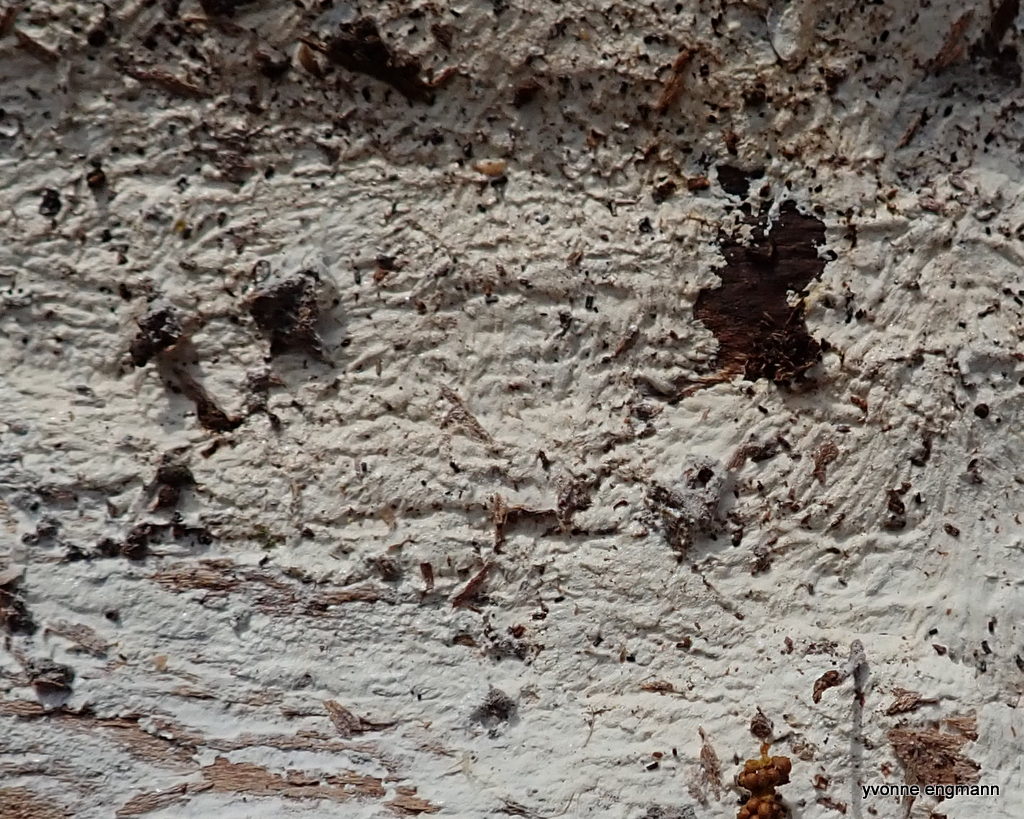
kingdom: Fungi
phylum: Basidiomycota
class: Agaricomycetes
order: Corticiales
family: Corticiaceae
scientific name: Corticiaceae
